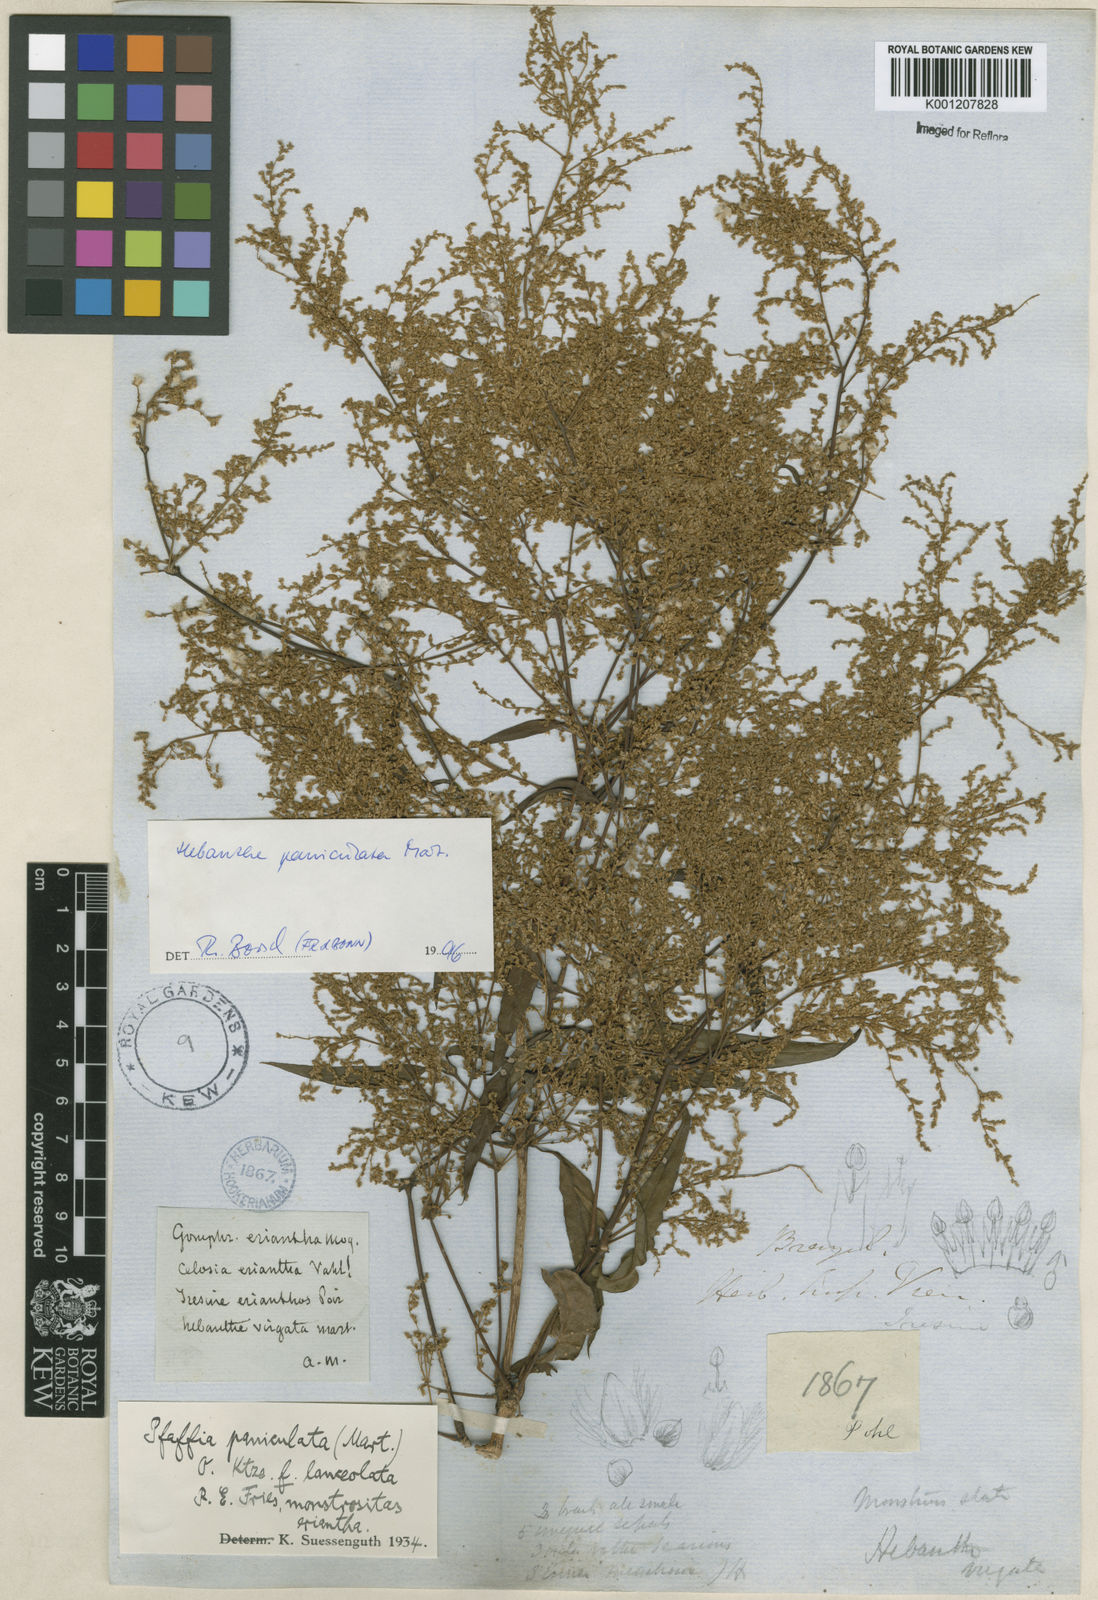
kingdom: Plantae
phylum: Tracheophyta
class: Magnoliopsida
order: Caryophyllales
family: Amaranthaceae
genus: Hebanthe
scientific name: Hebanthe erianthos
